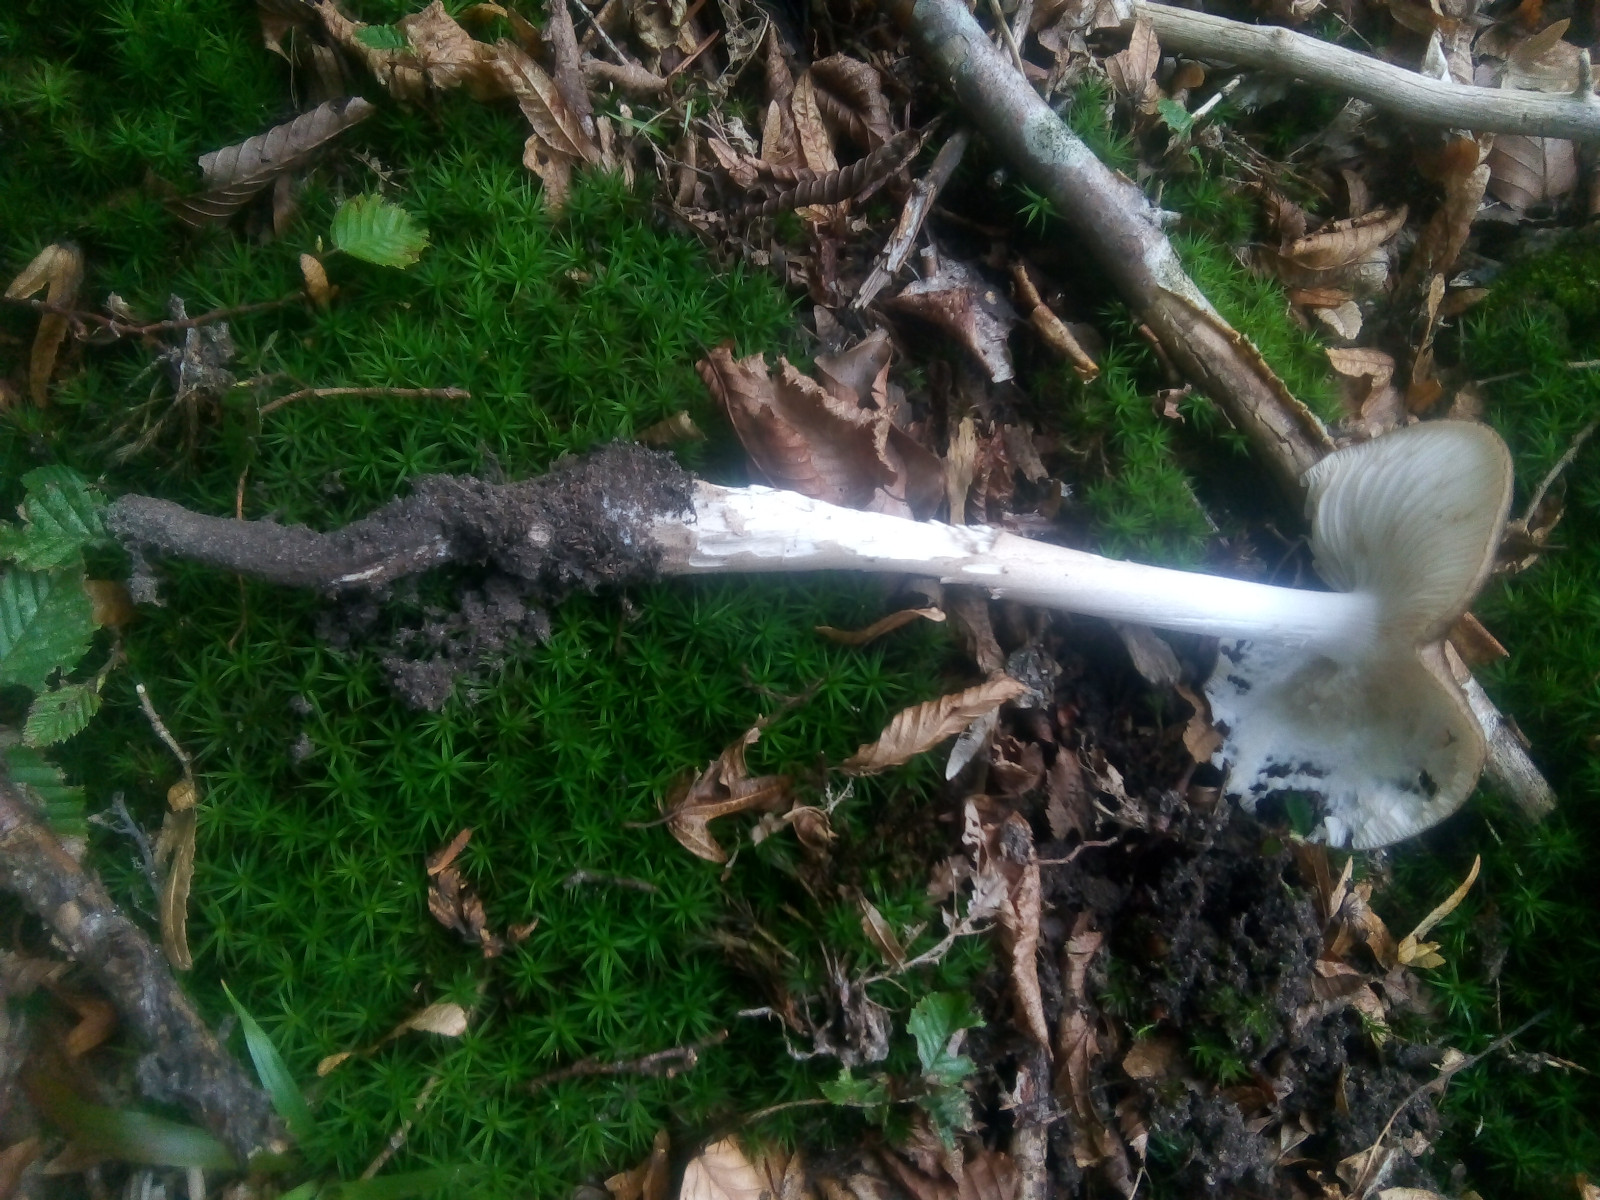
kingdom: Fungi
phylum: Basidiomycota
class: Agaricomycetes
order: Agaricales
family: Physalacriaceae
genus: Hymenopellis
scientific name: Hymenopellis radicata
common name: almindelig pælerodshat
